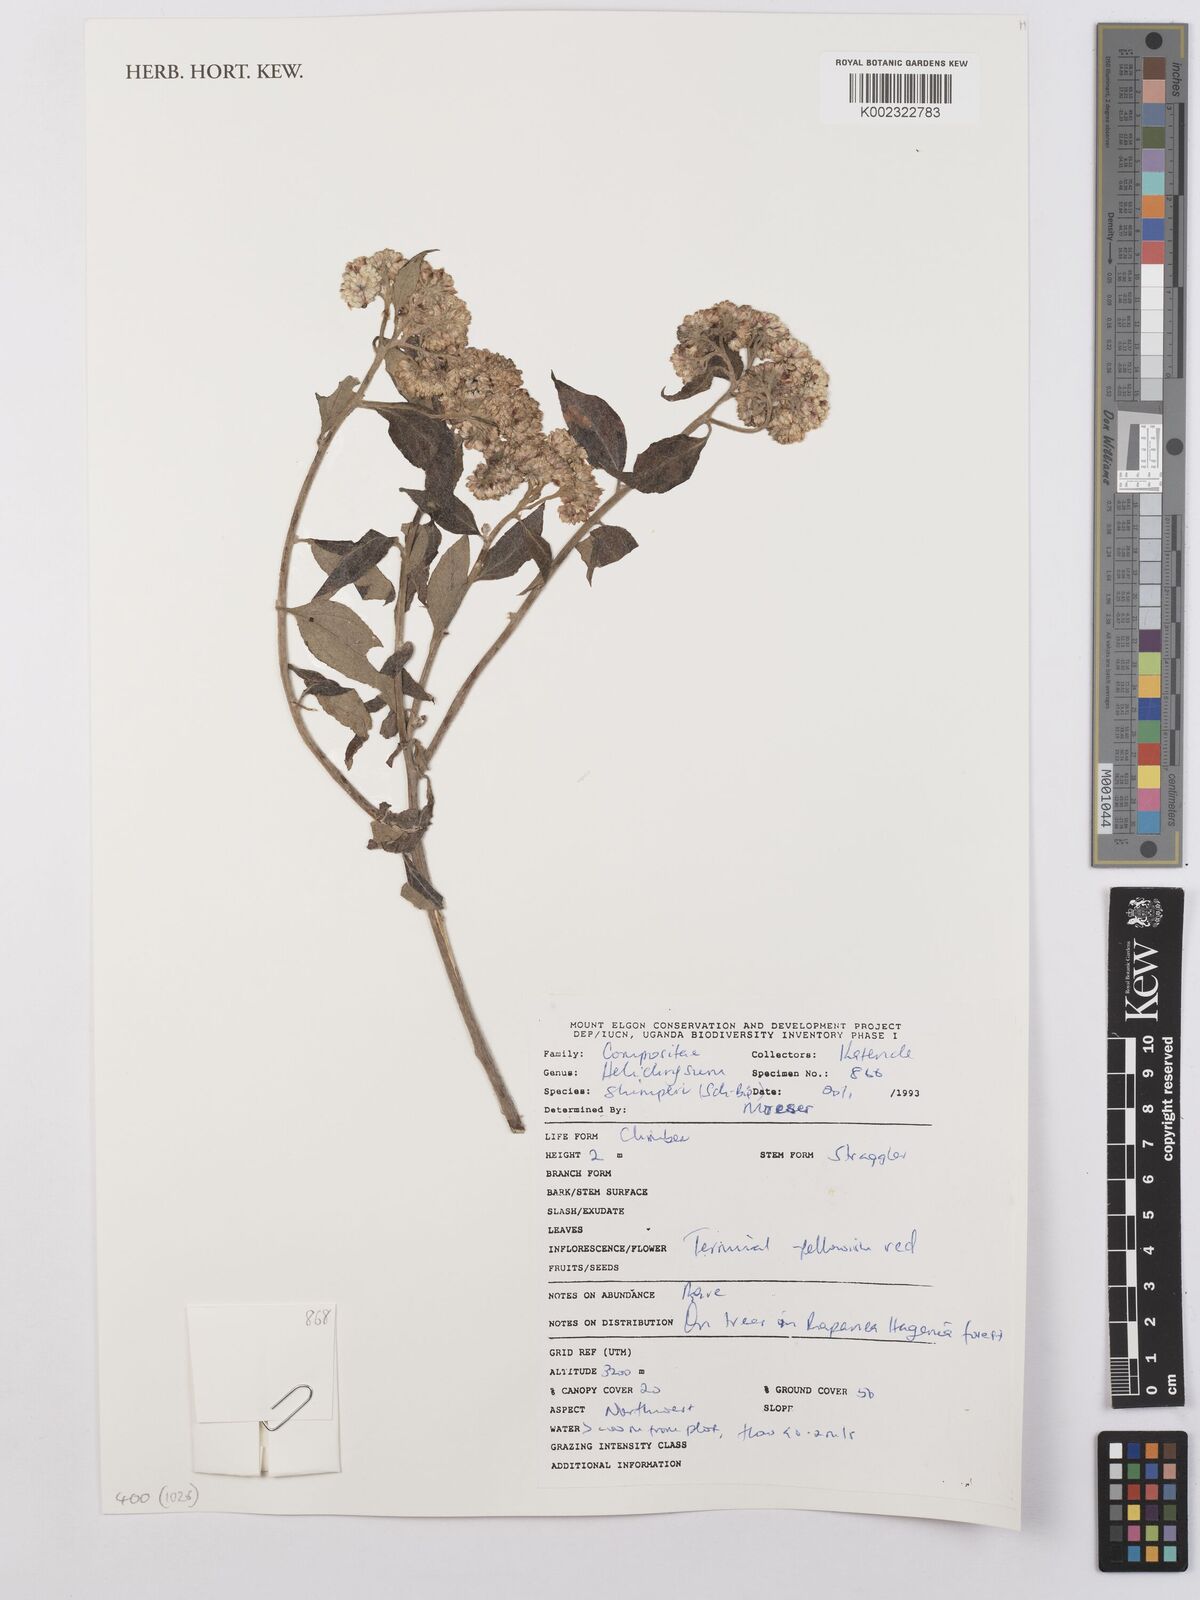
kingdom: Plantae
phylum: Tracheophyta
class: Magnoliopsida
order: Asterales
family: Asteraceae
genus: Helichrysum
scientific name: Helichrysum schimperi
